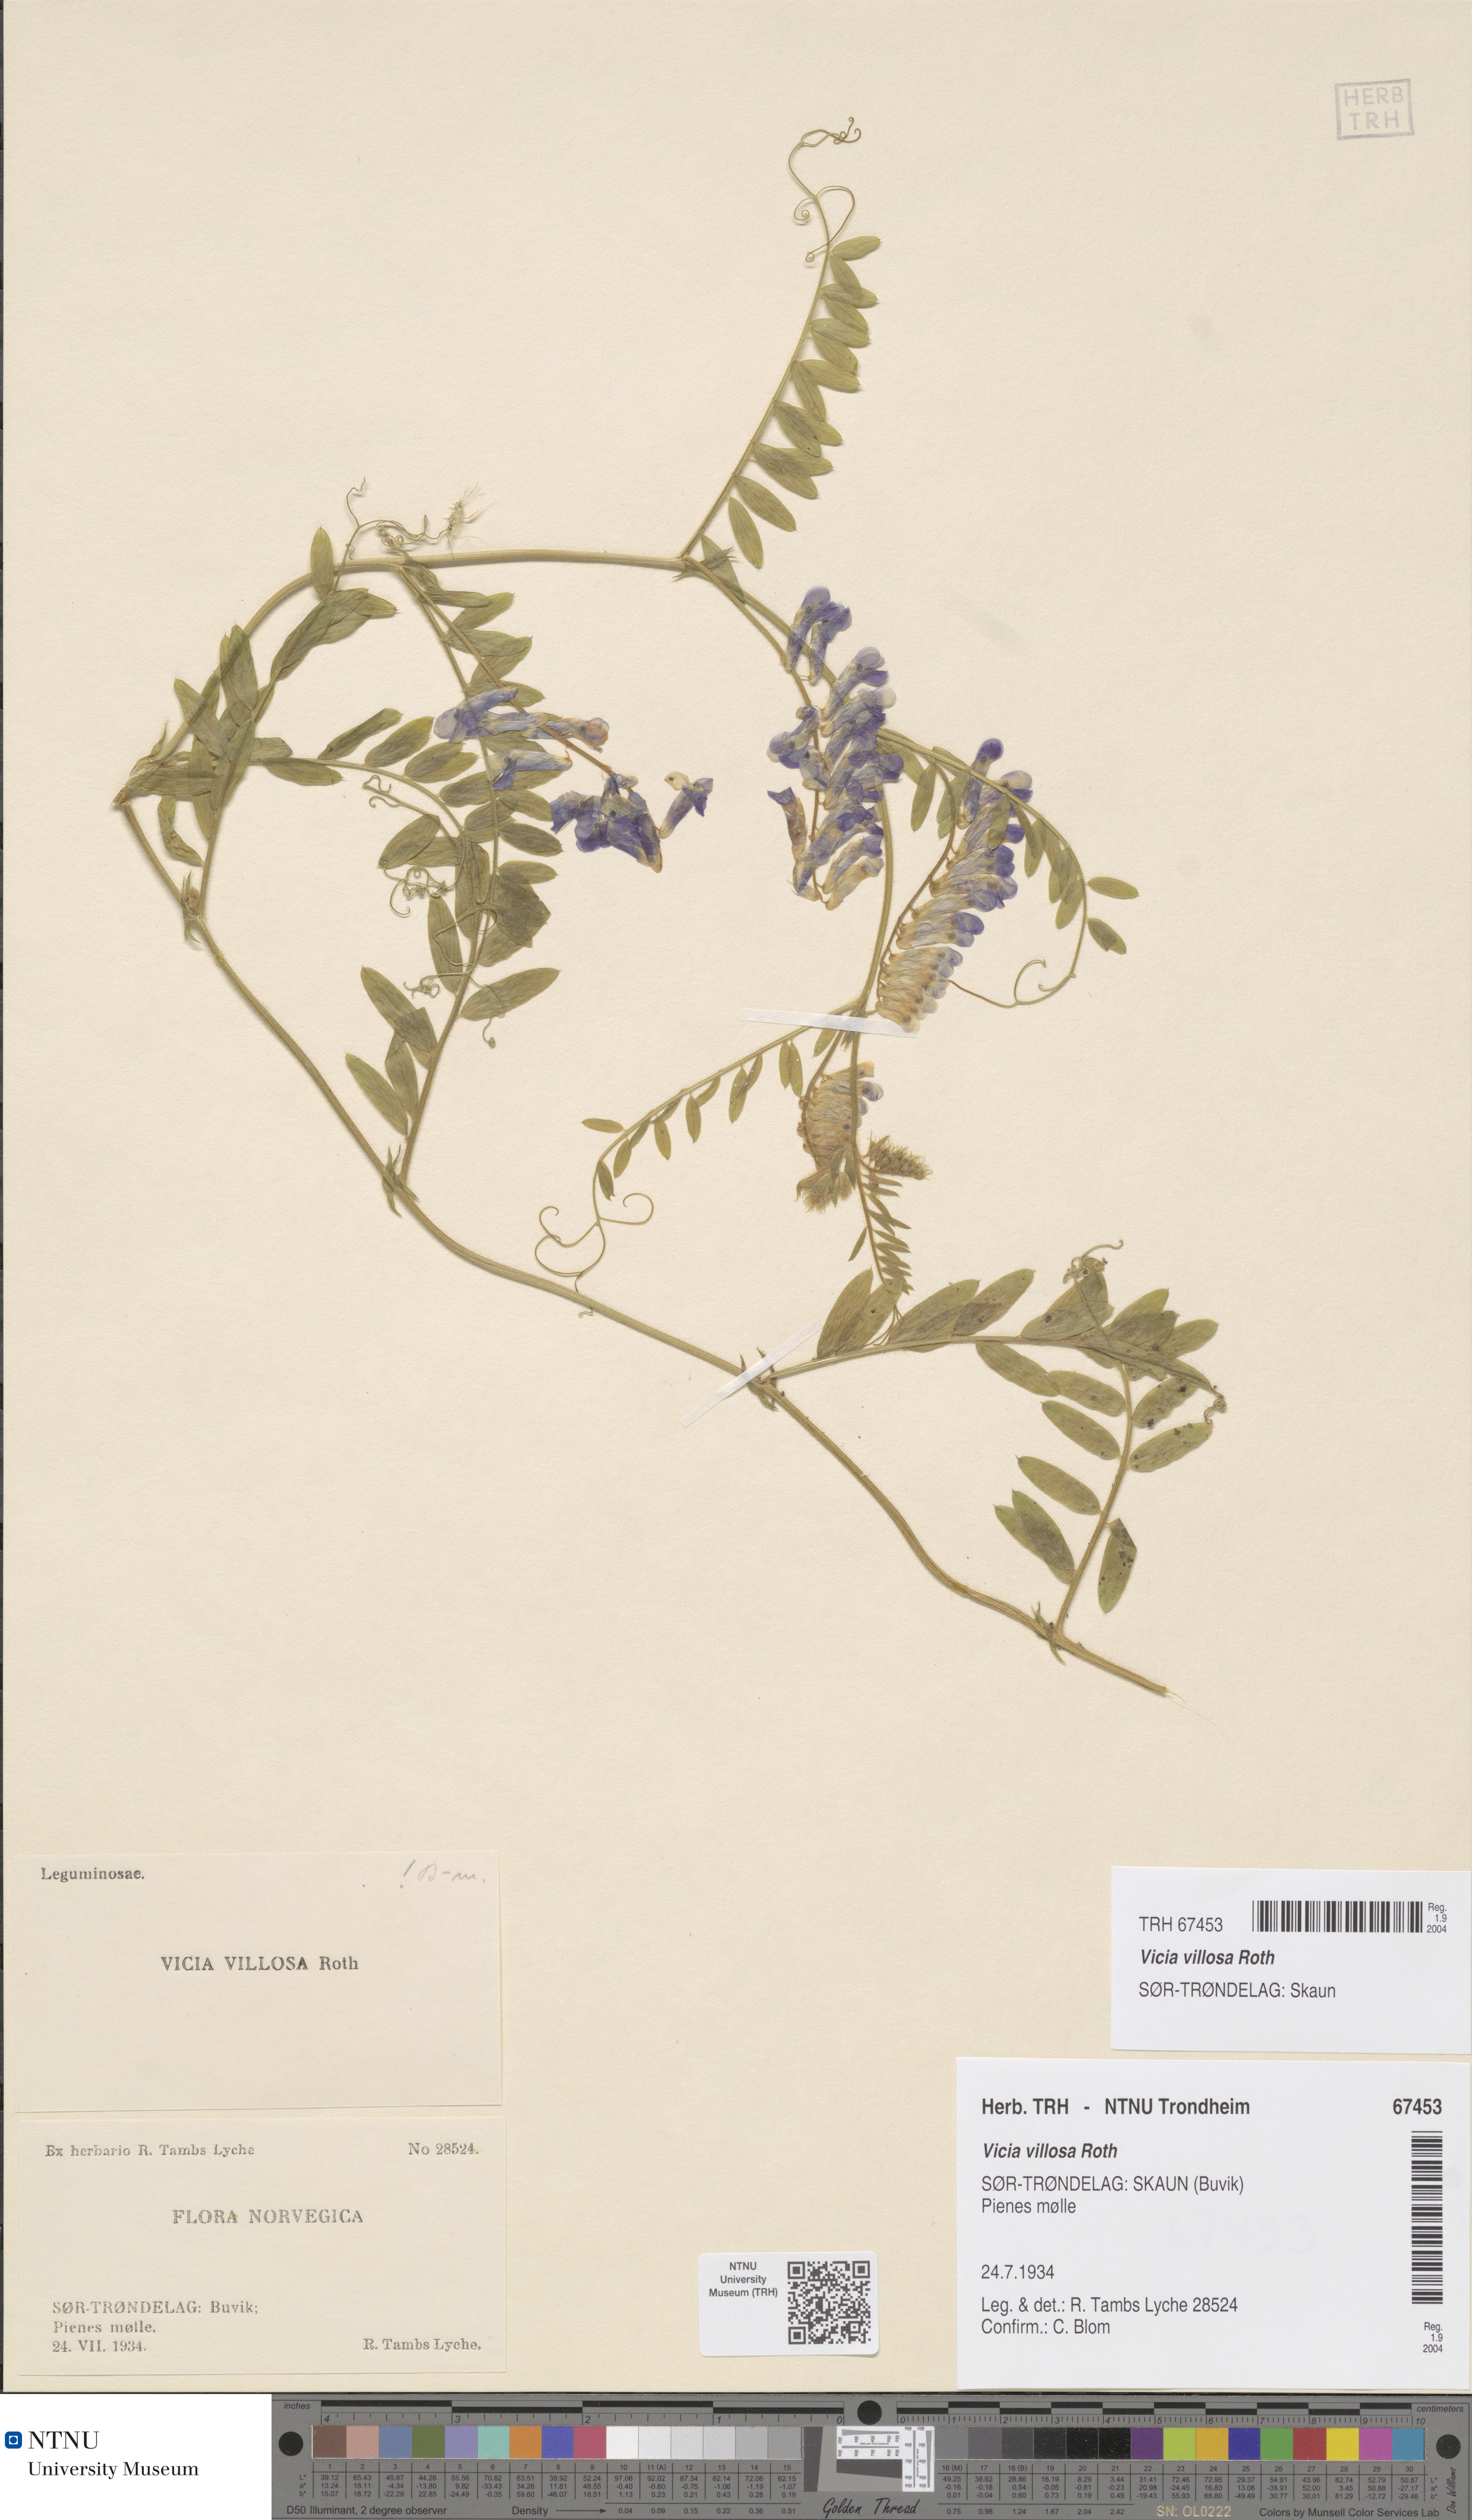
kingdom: Plantae
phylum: Tracheophyta
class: Magnoliopsida
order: Fabales
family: Fabaceae
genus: Vicia
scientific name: Vicia villosa
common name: Fodder vetch
